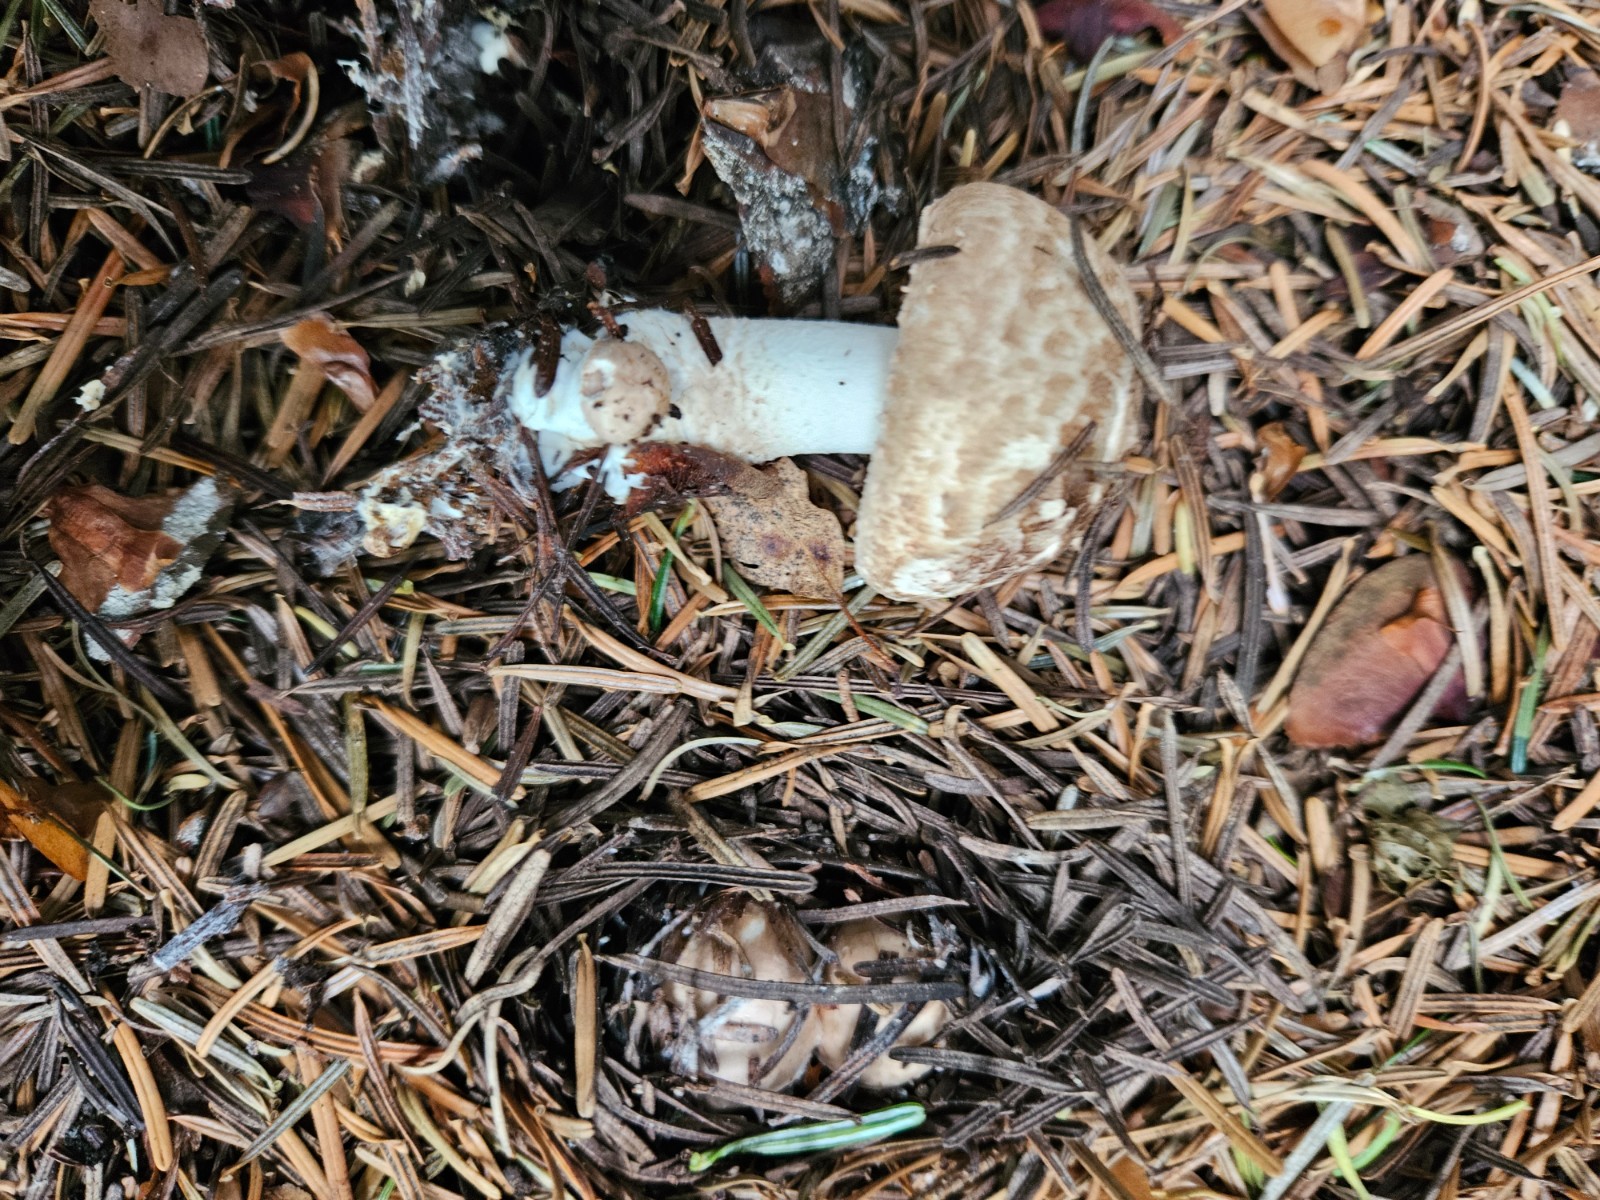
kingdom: Fungi
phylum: Basidiomycota
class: Agaricomycetes
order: Agaricales
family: Agaricaceae
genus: Agaricus
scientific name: Agaricus sylvaticus
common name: lille blod-champignon
